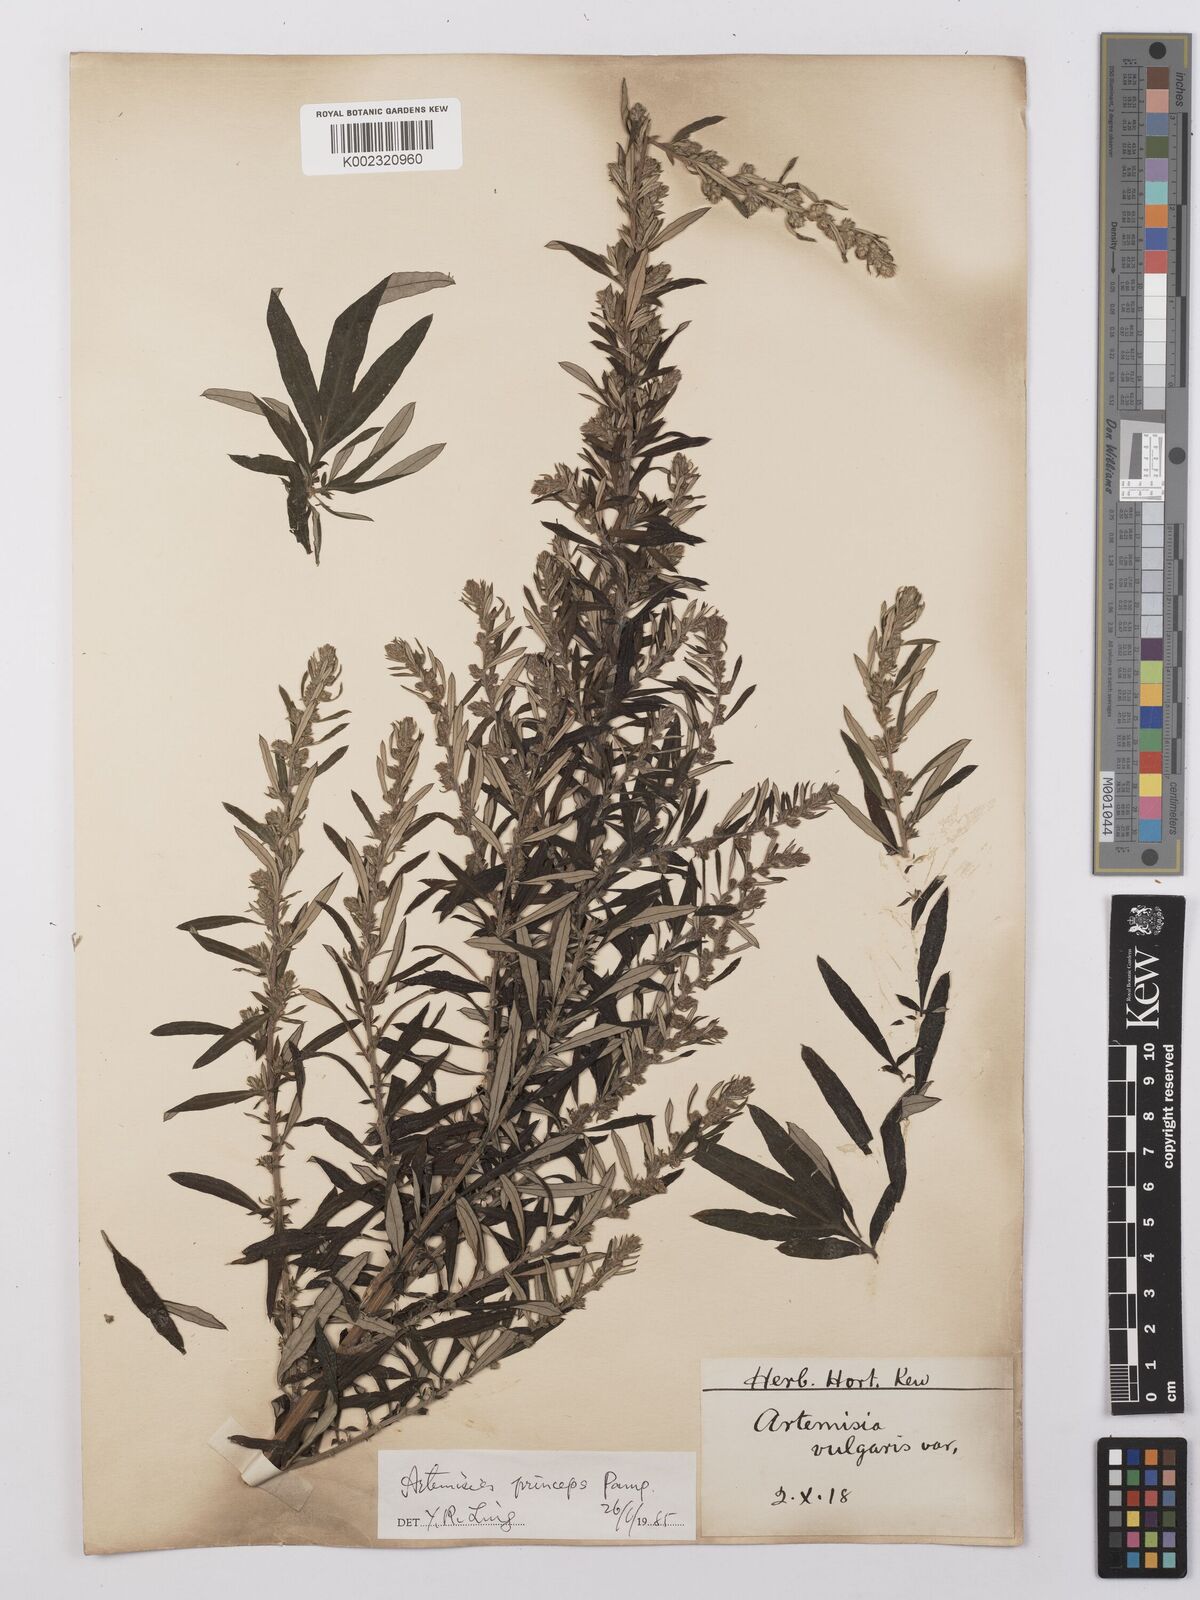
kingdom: Plantae
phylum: Tracheophyta
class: Magnoliopsida
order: Asterales
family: Asteraceae
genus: Artemisia
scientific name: Artemisia vulgaris
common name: Mugwort
